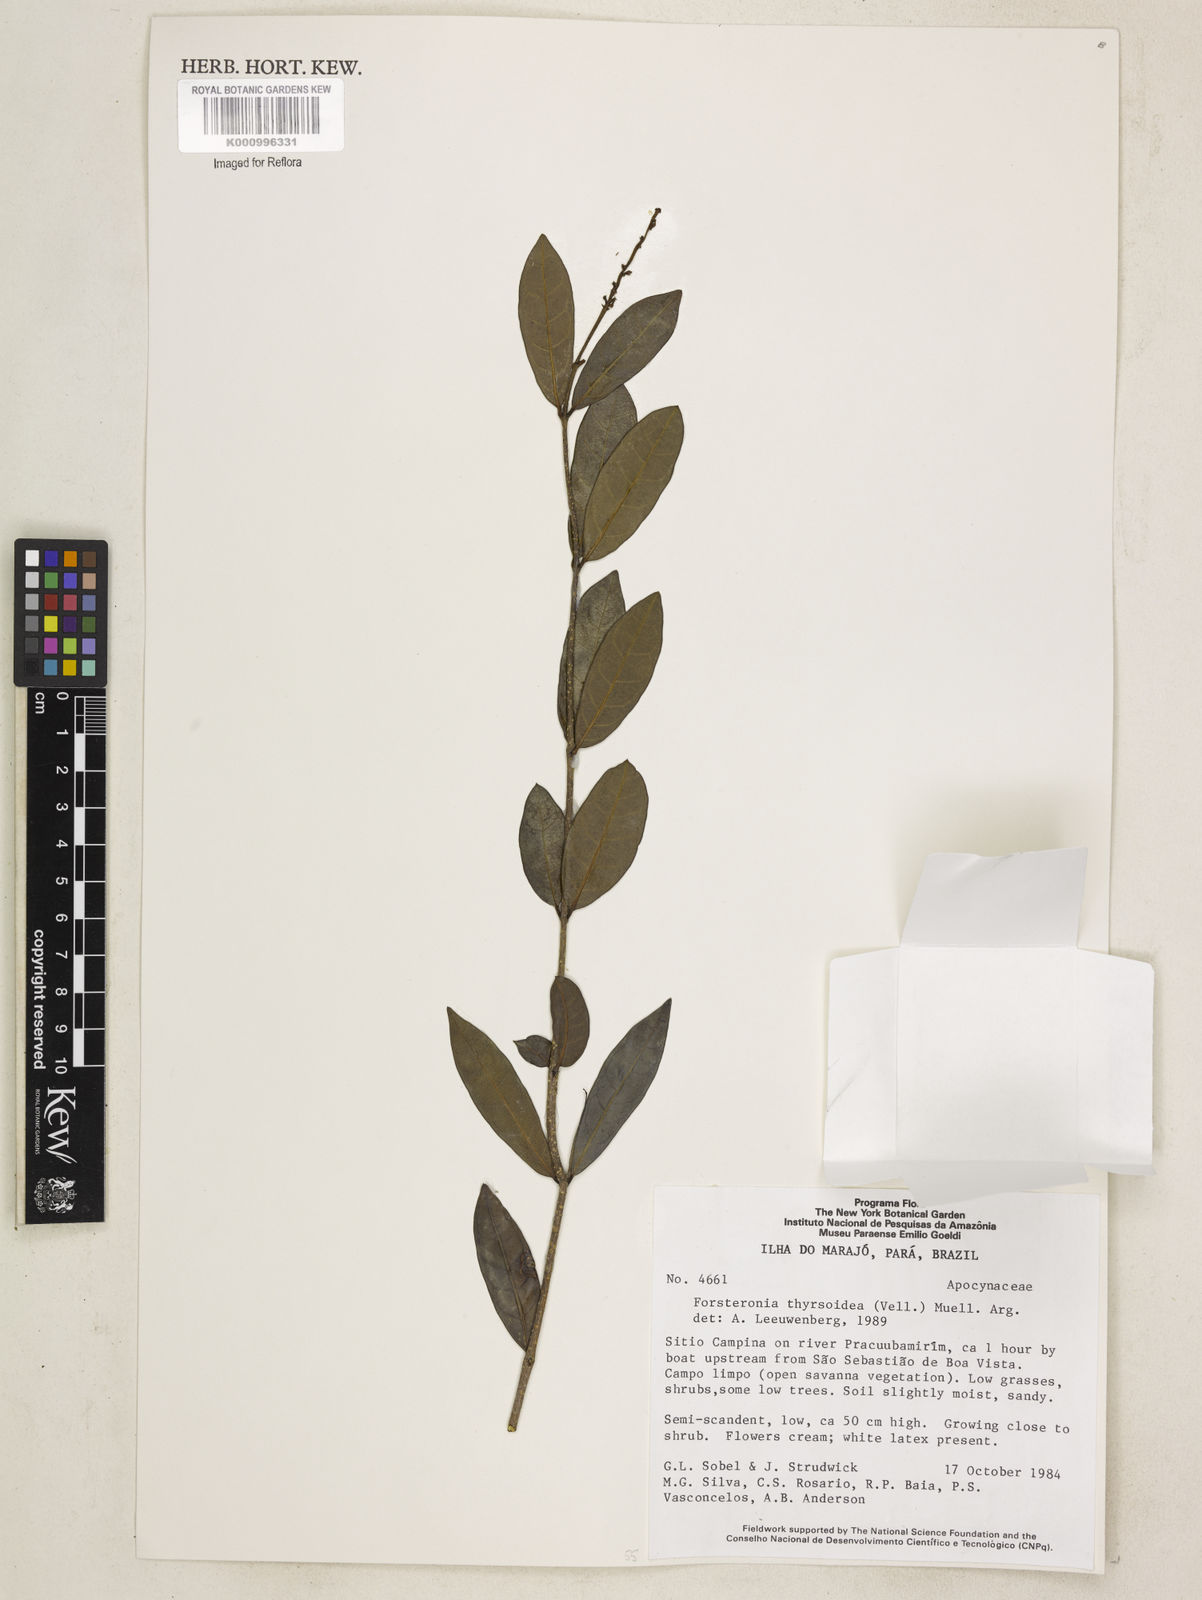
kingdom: Plantae
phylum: Tracheophyta
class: Magnoliopsida
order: Gentianales
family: Apocynaceae
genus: Forsteronia
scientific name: Forsteronia
